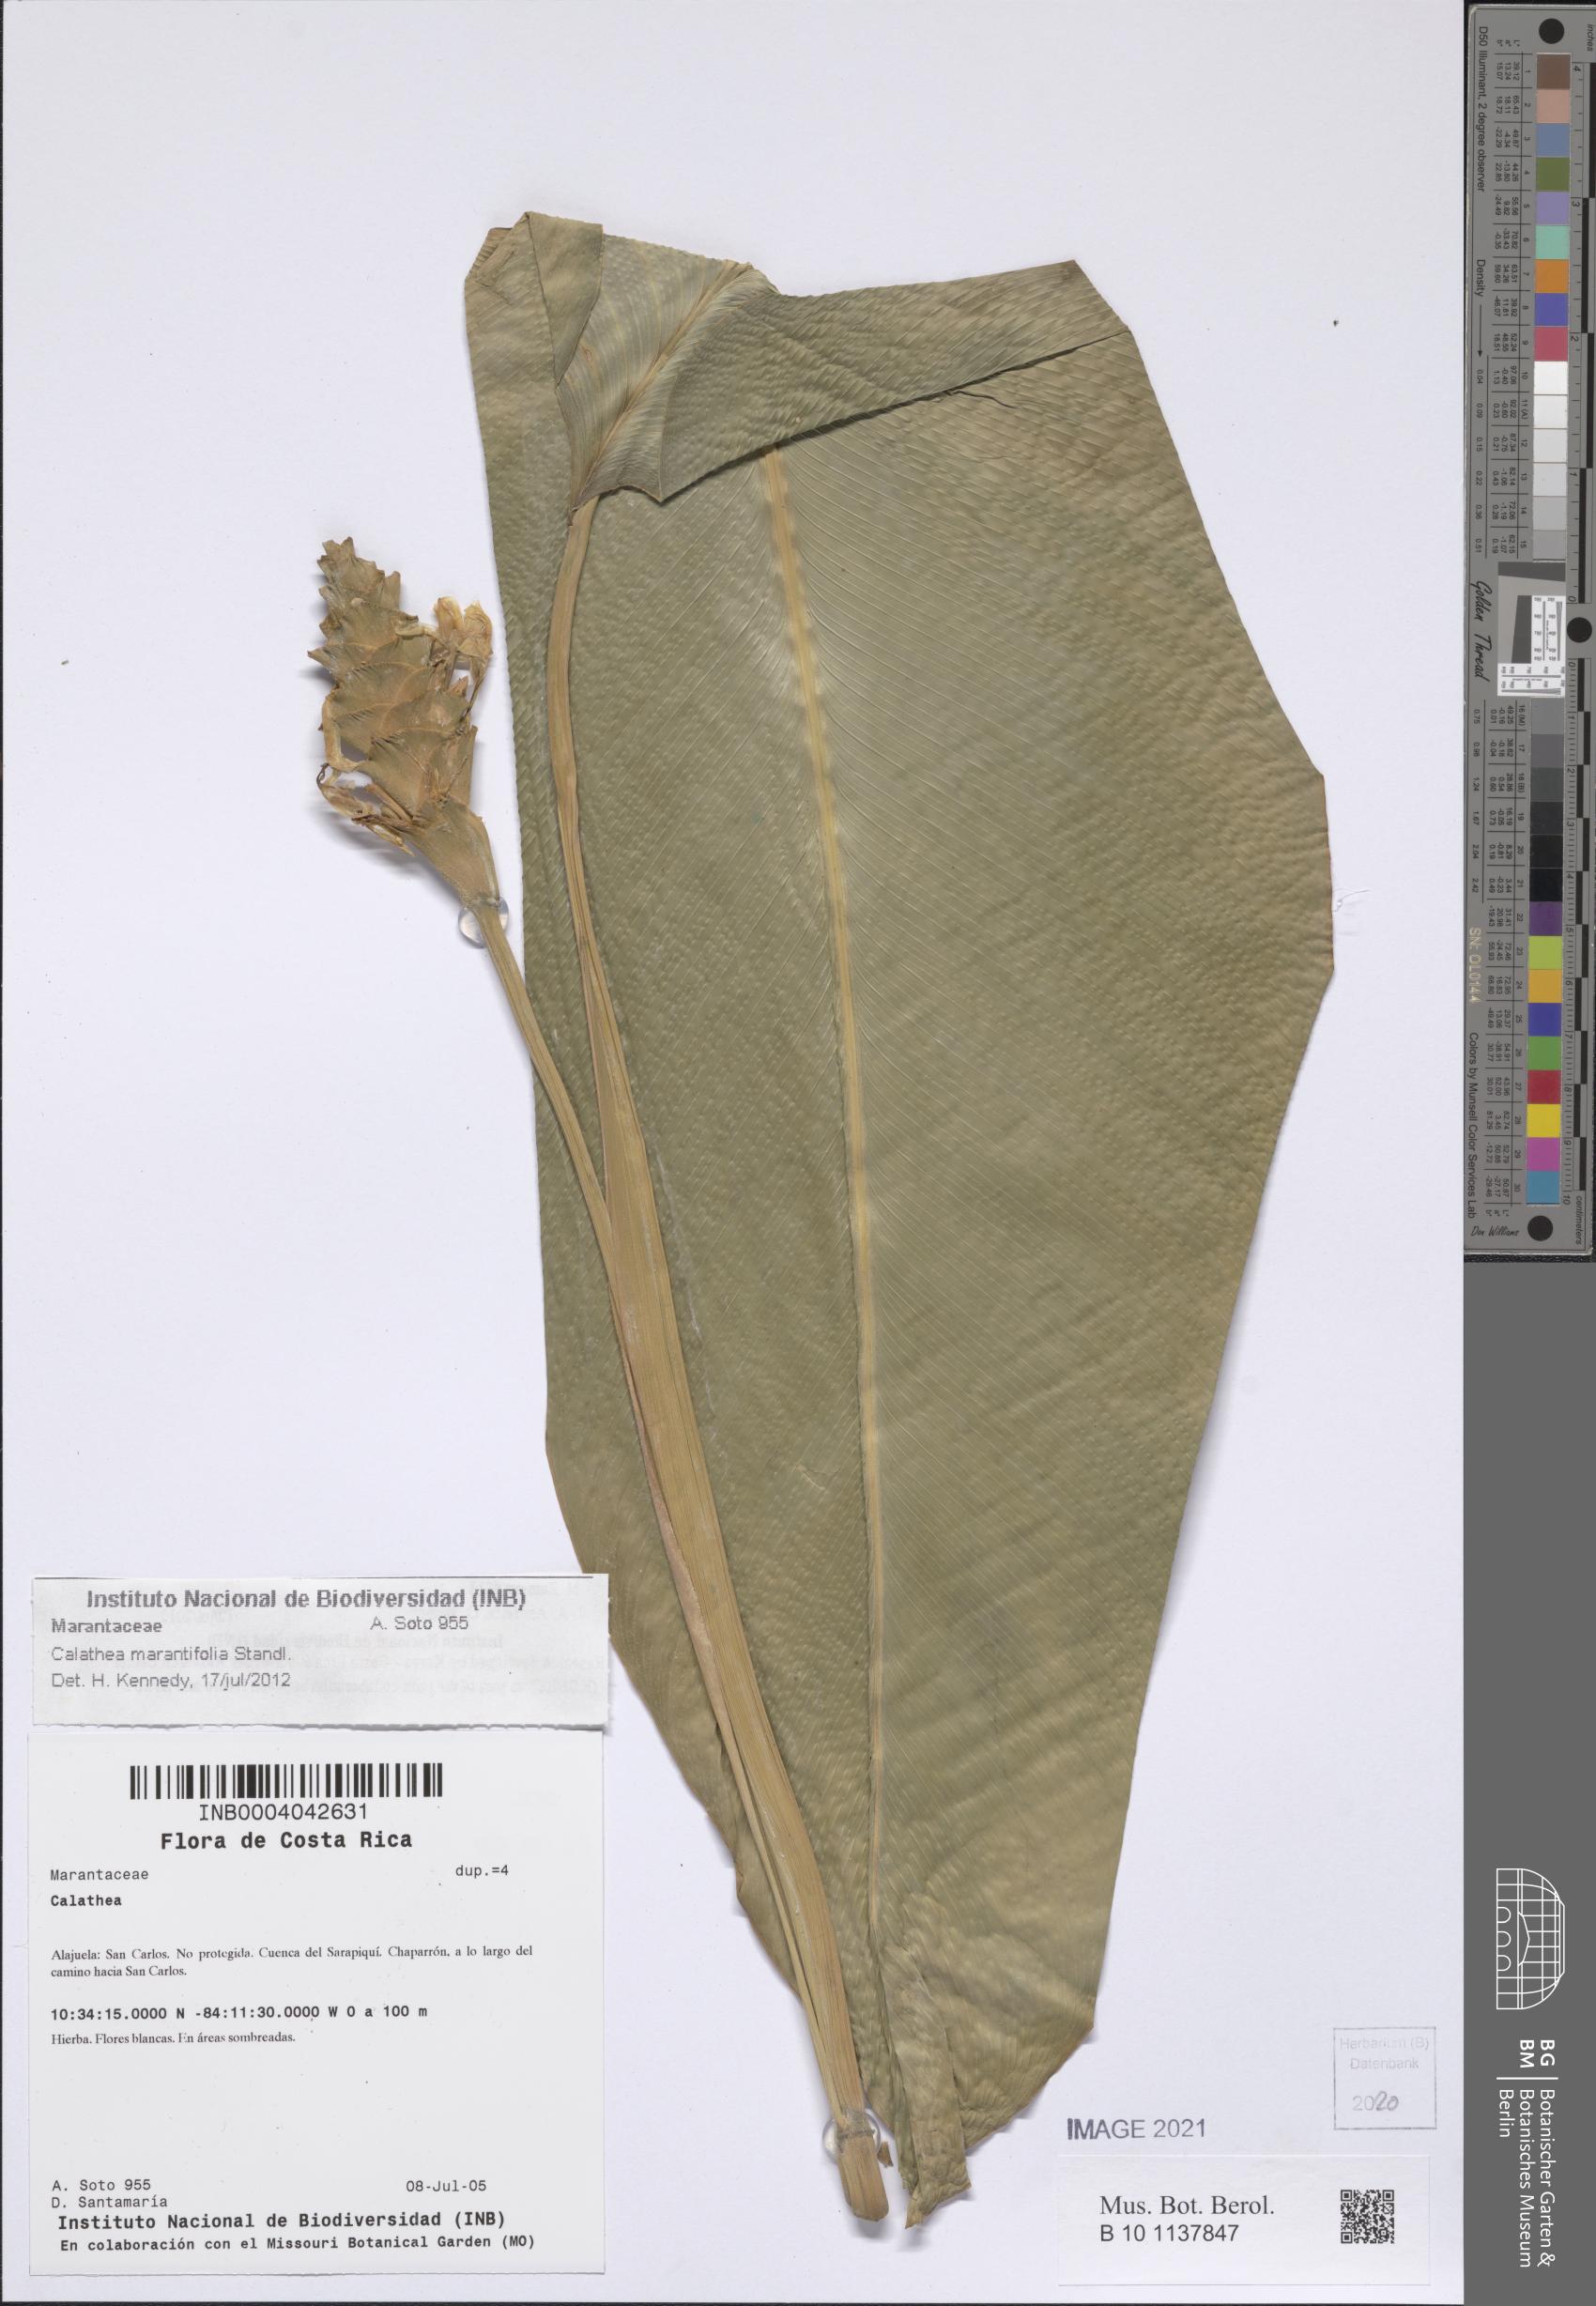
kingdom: Plantae
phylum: Tracheophyta
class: Liliopsida
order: Zingiberales
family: Marantaceae
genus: Goeppertia
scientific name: Goeppertia marantifolia
